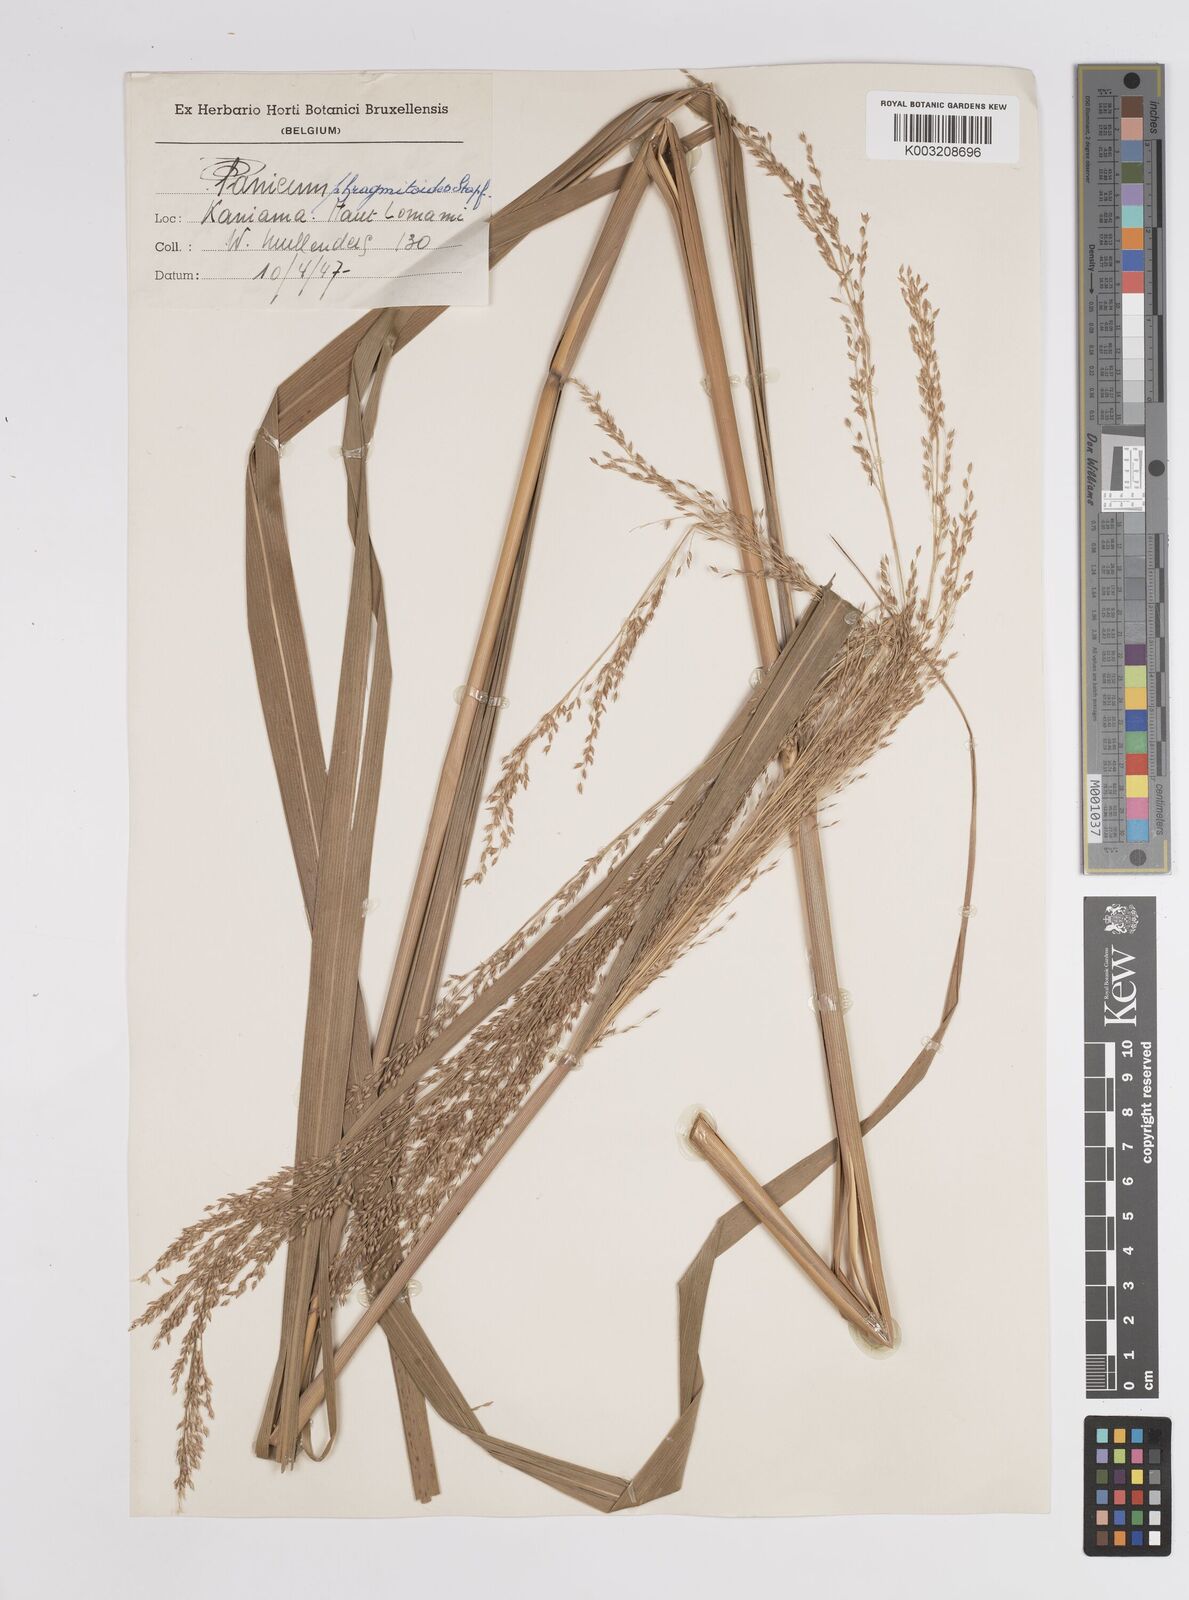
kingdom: Plantae
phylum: Tracheophyta
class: Liliopsida
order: Poales
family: Poaceae
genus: Panicum
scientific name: Panicum phragmitoides
